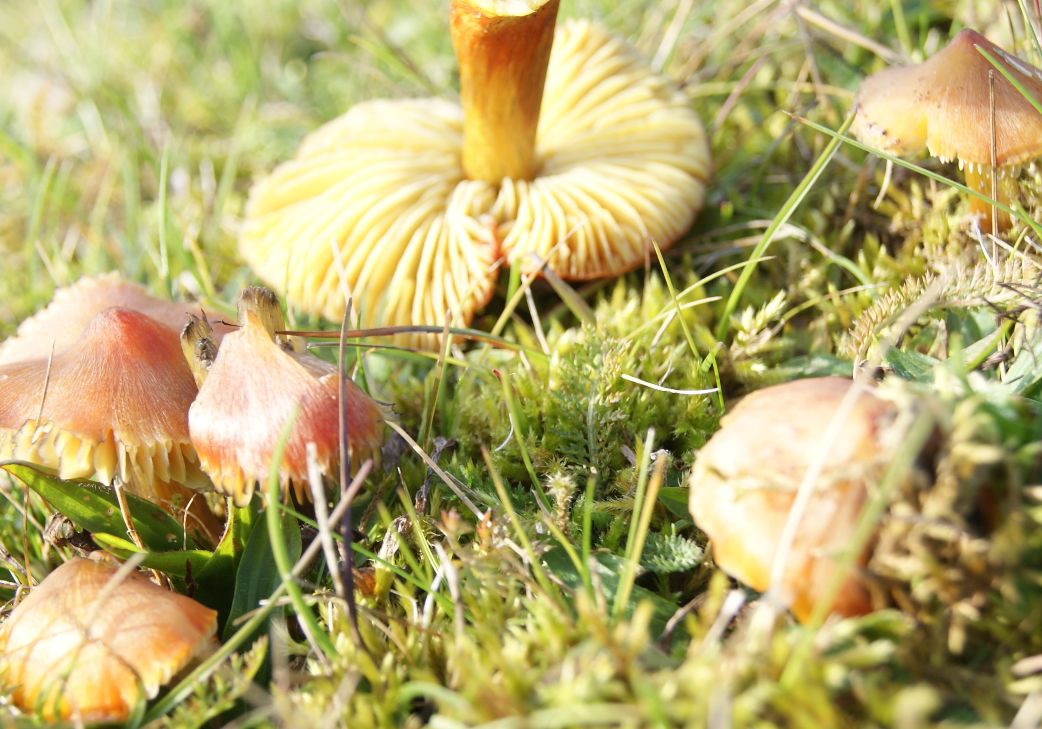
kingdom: Fungi
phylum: Basidiomycota
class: Agaricomycetes
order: Agaricales
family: Hygrophoraceae
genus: Hygrocybe
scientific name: Hygrocybe conica
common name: kegle-vokshat
